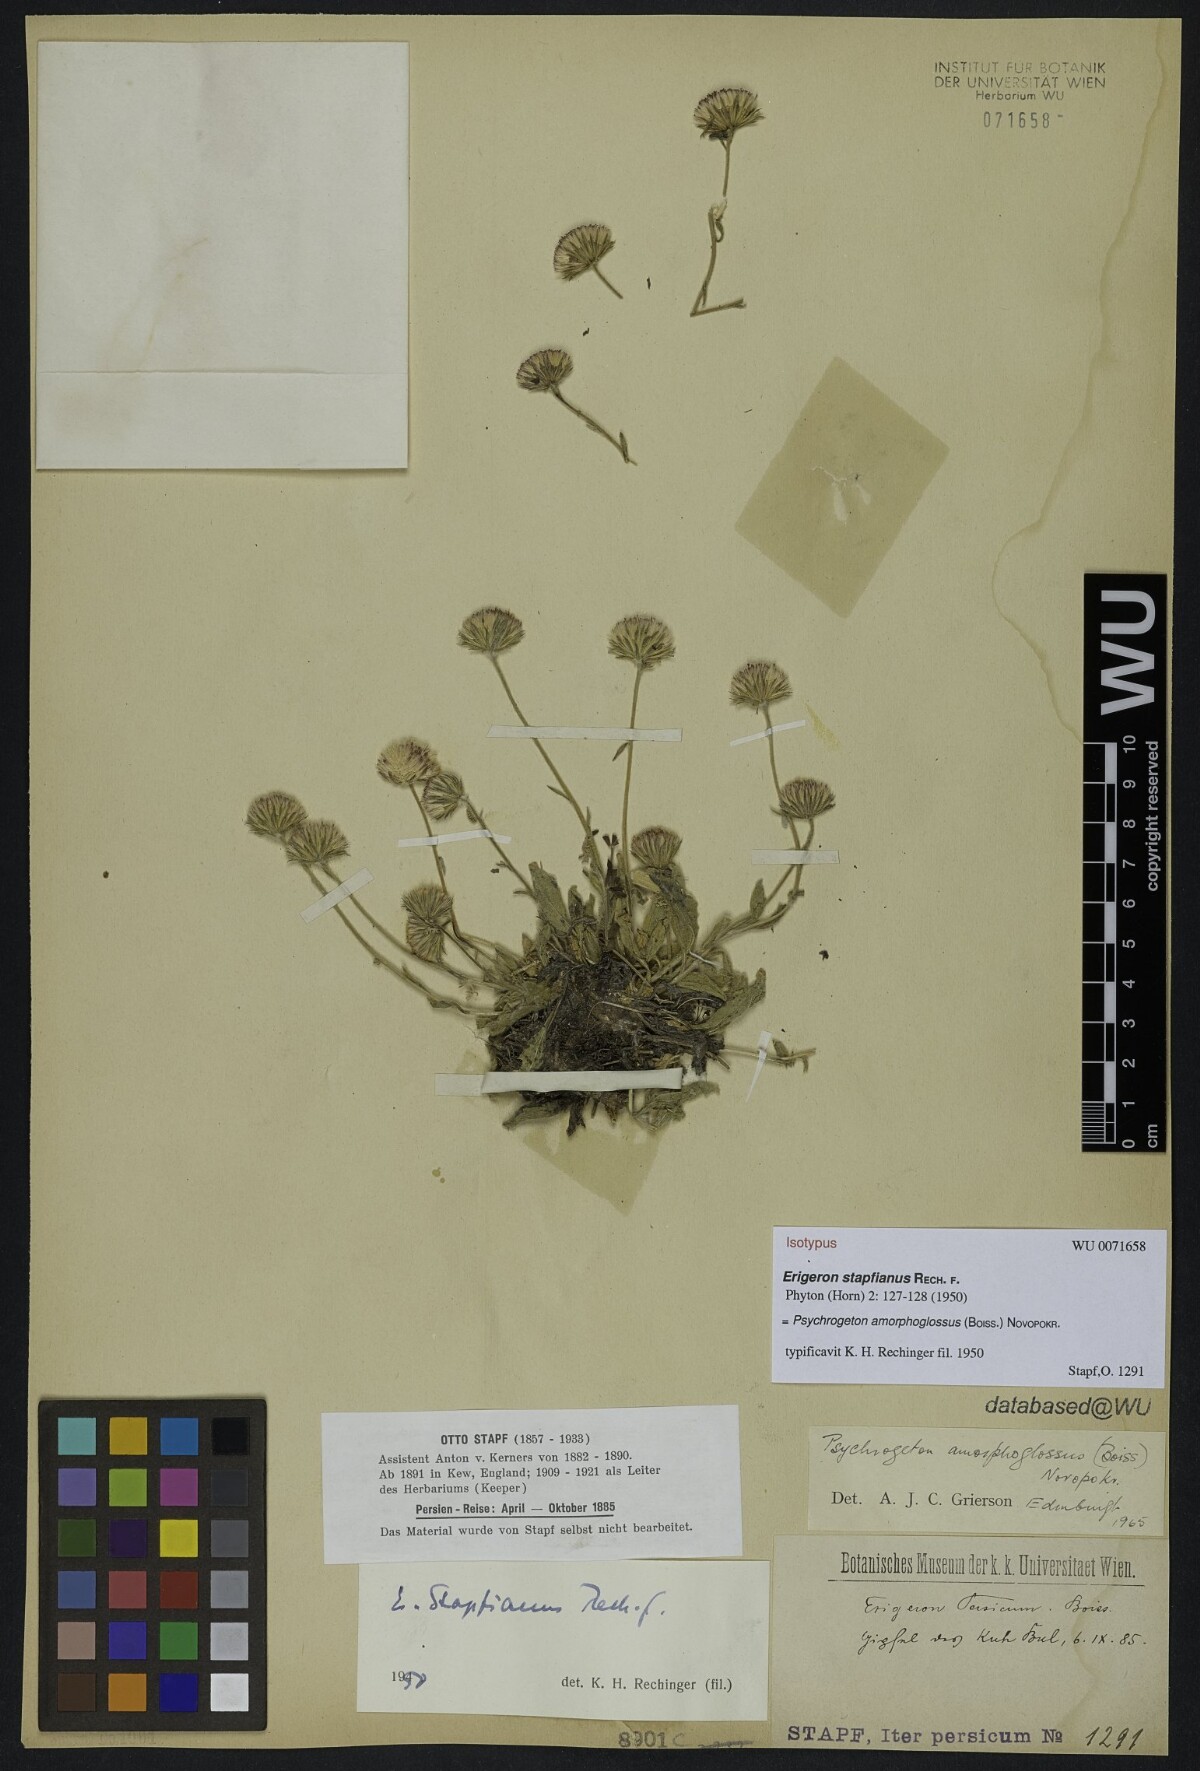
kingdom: Plantae
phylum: Tracheophyta
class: Magnoliopsida
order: Asterales
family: Asteraceae
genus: Psychrogeton
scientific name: Psychrogeton amorphoglossus
